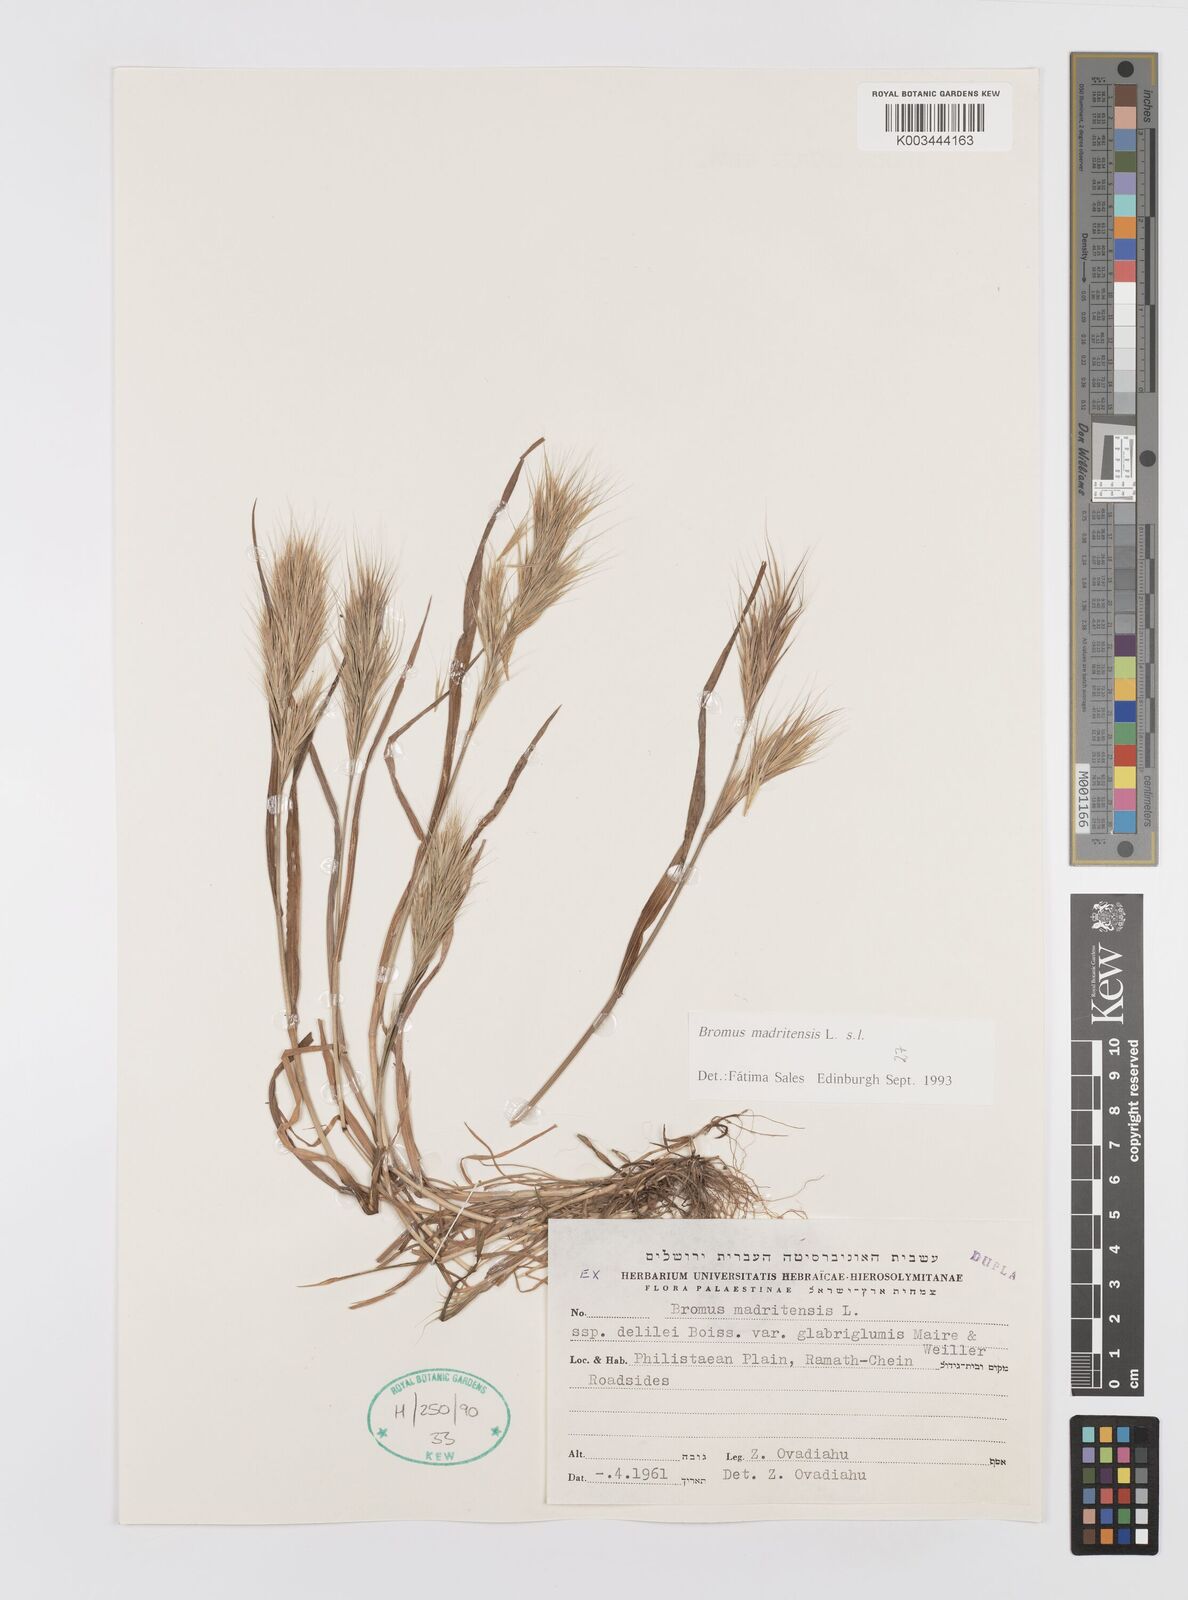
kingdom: Plantae
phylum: Tracheophyta
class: Liliopsida
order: Poales
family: Poaceae
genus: Bromus
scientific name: Bromus madritensis
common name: Compact brome
